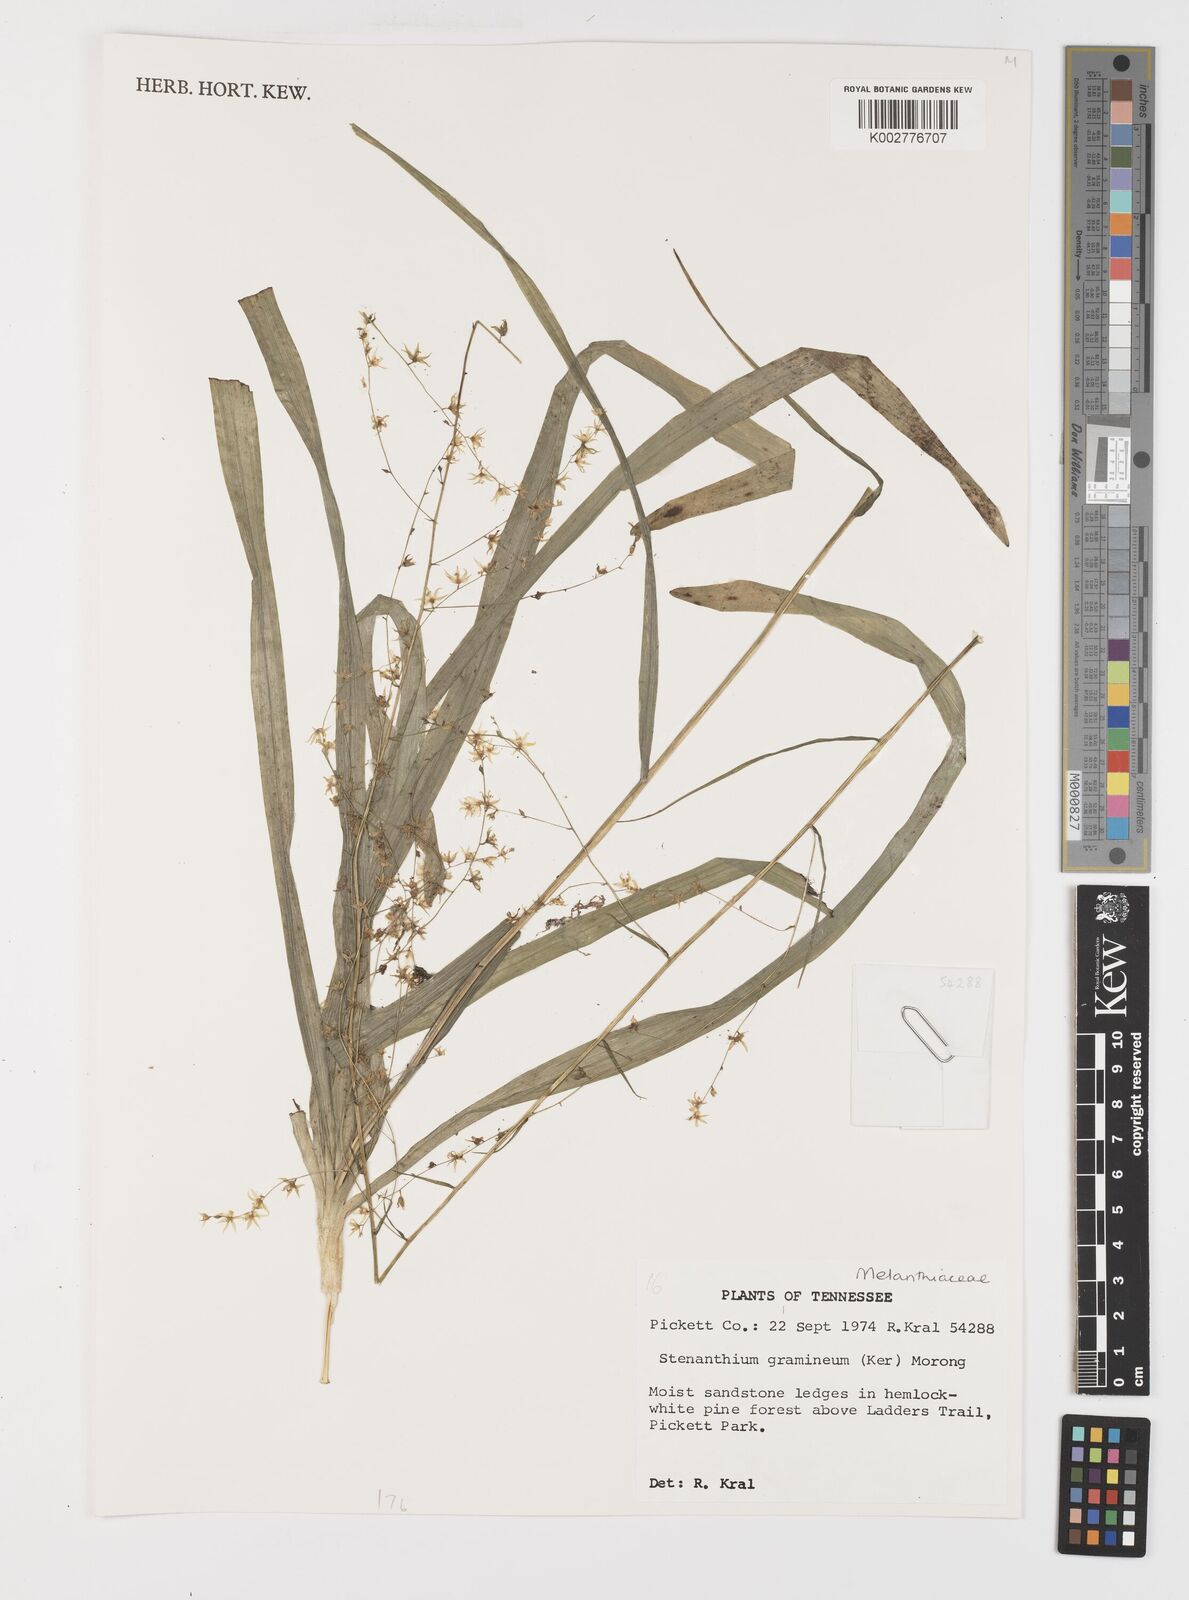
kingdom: Plantae
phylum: Tracheophyta
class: Liliopsida
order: Liliales
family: Melanthiaceae
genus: Stenanthium
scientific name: Stenanthium gramineum
